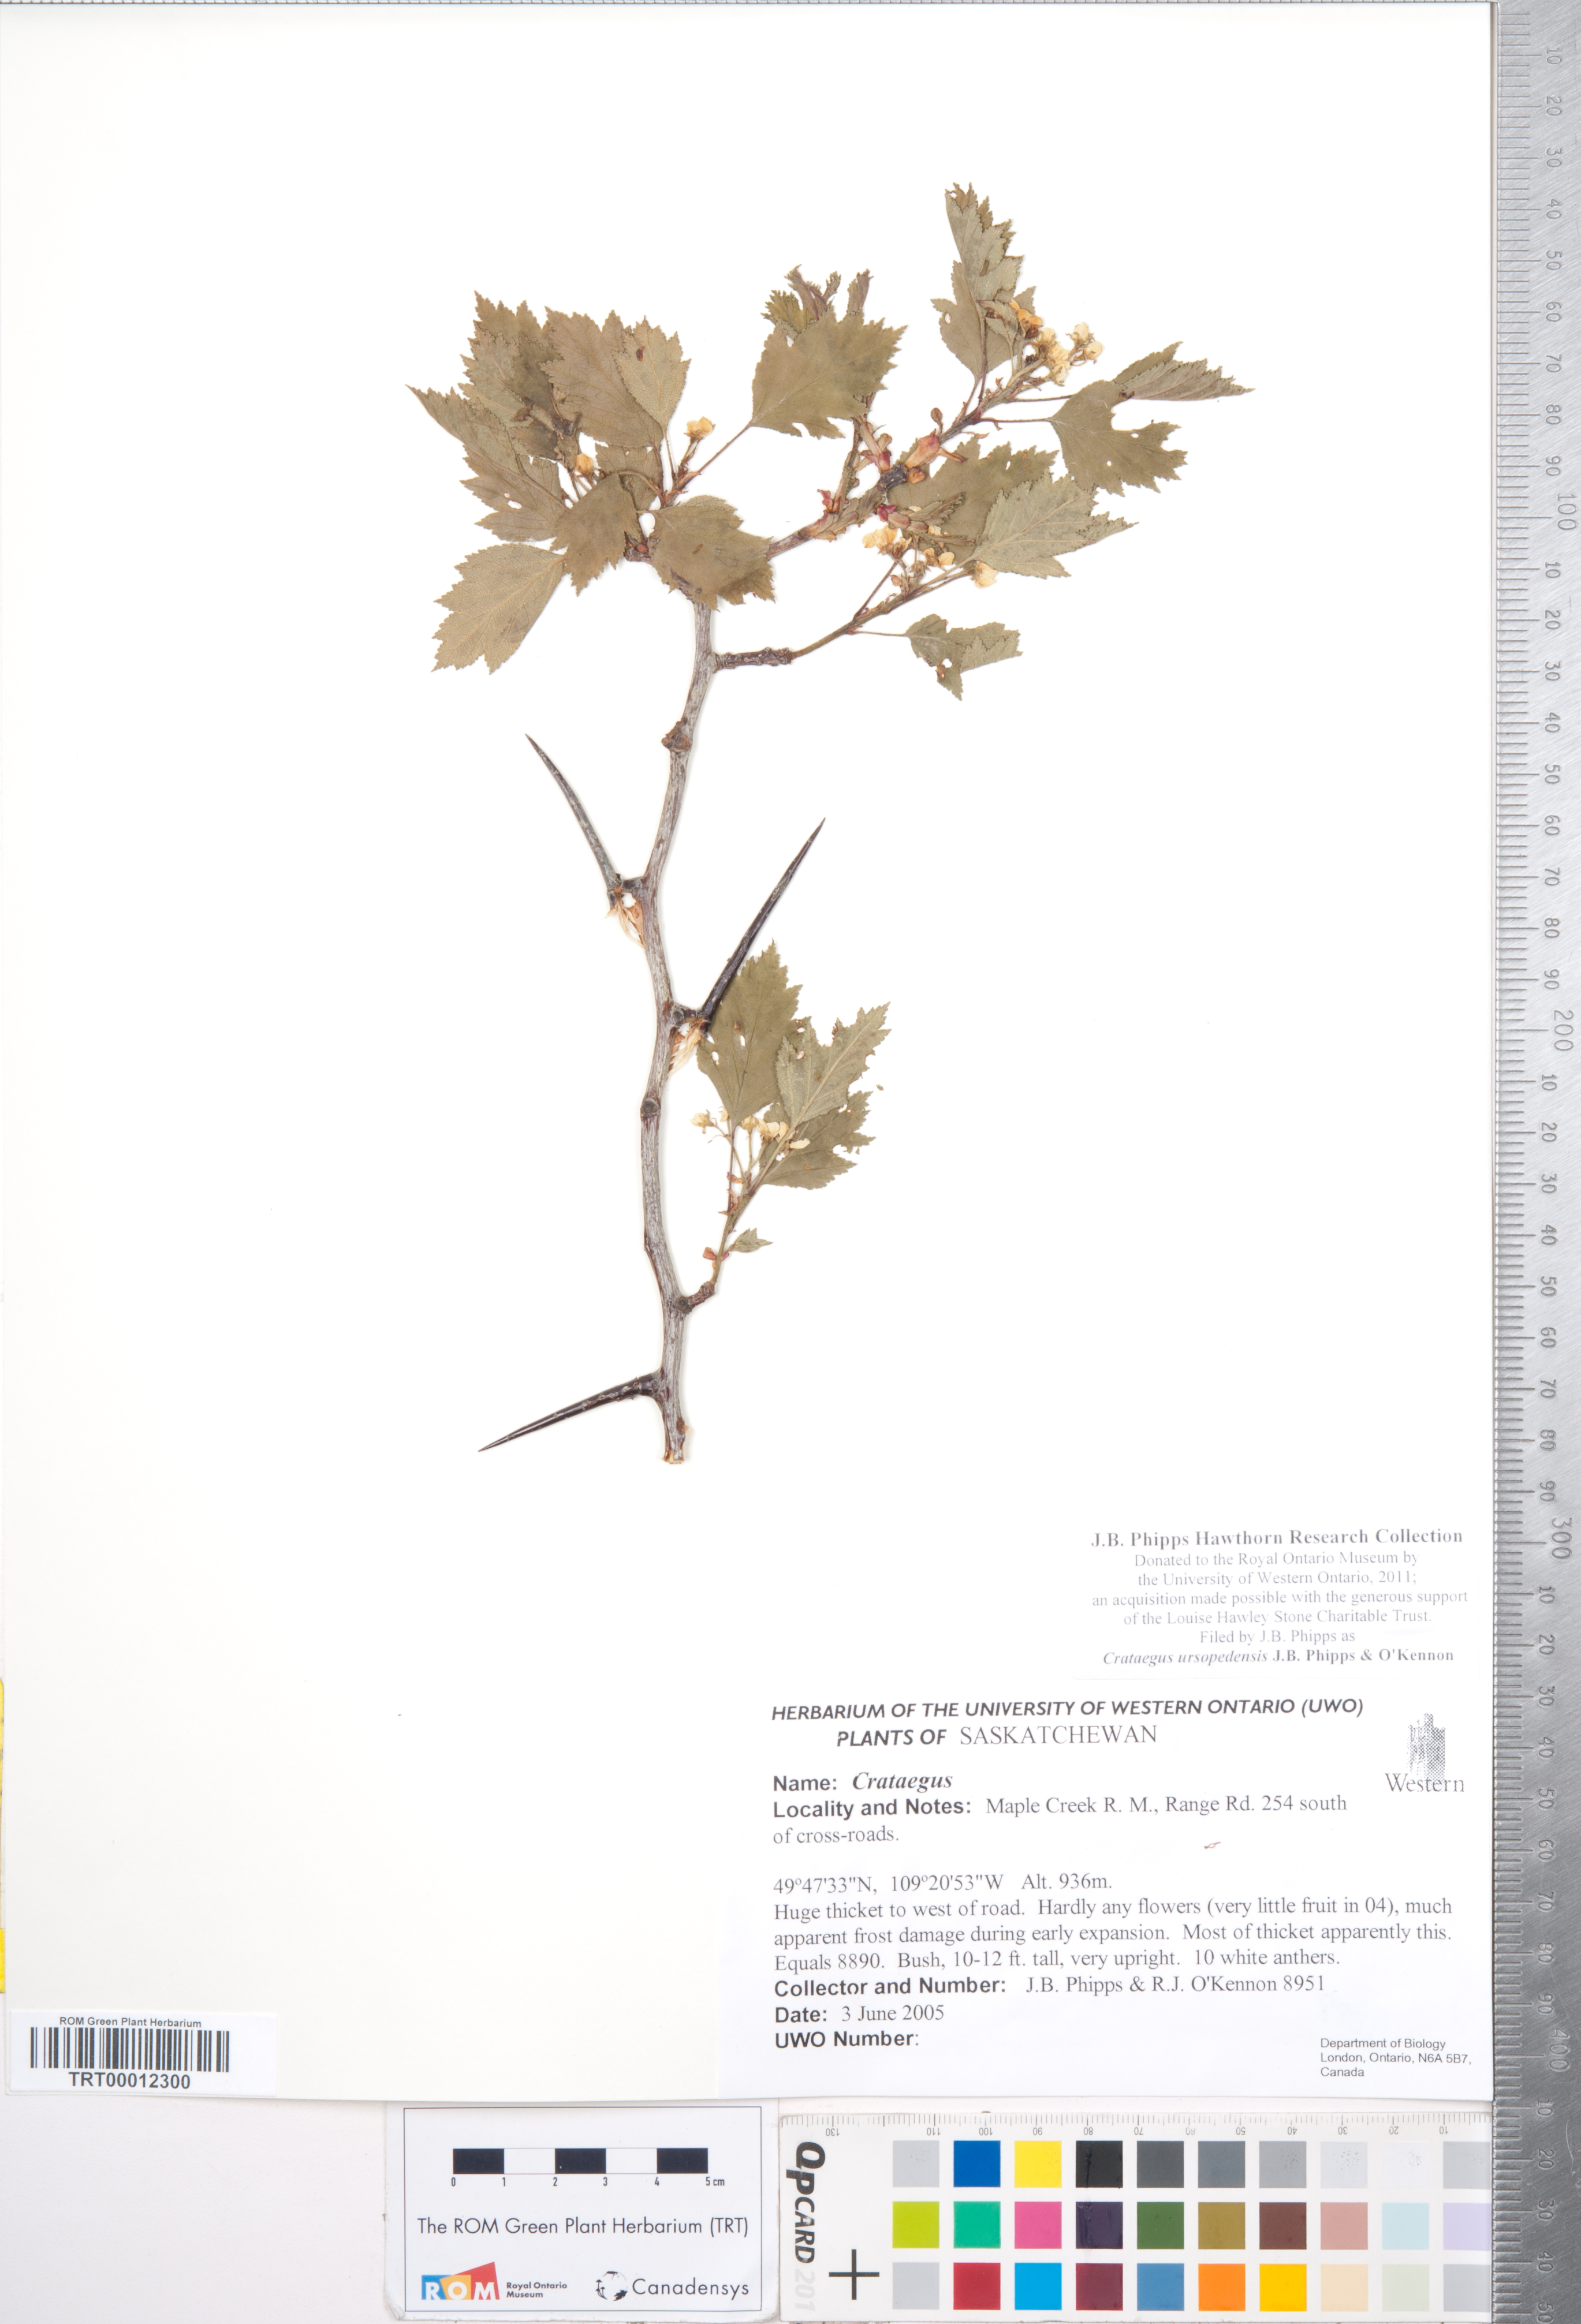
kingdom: Plantae
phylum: Tracheophyta
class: Magnoliopsida
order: Rosales
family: Rosaceae
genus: Crataegus
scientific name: Crataegus ursopedensis
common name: Bears paw hawthorn
